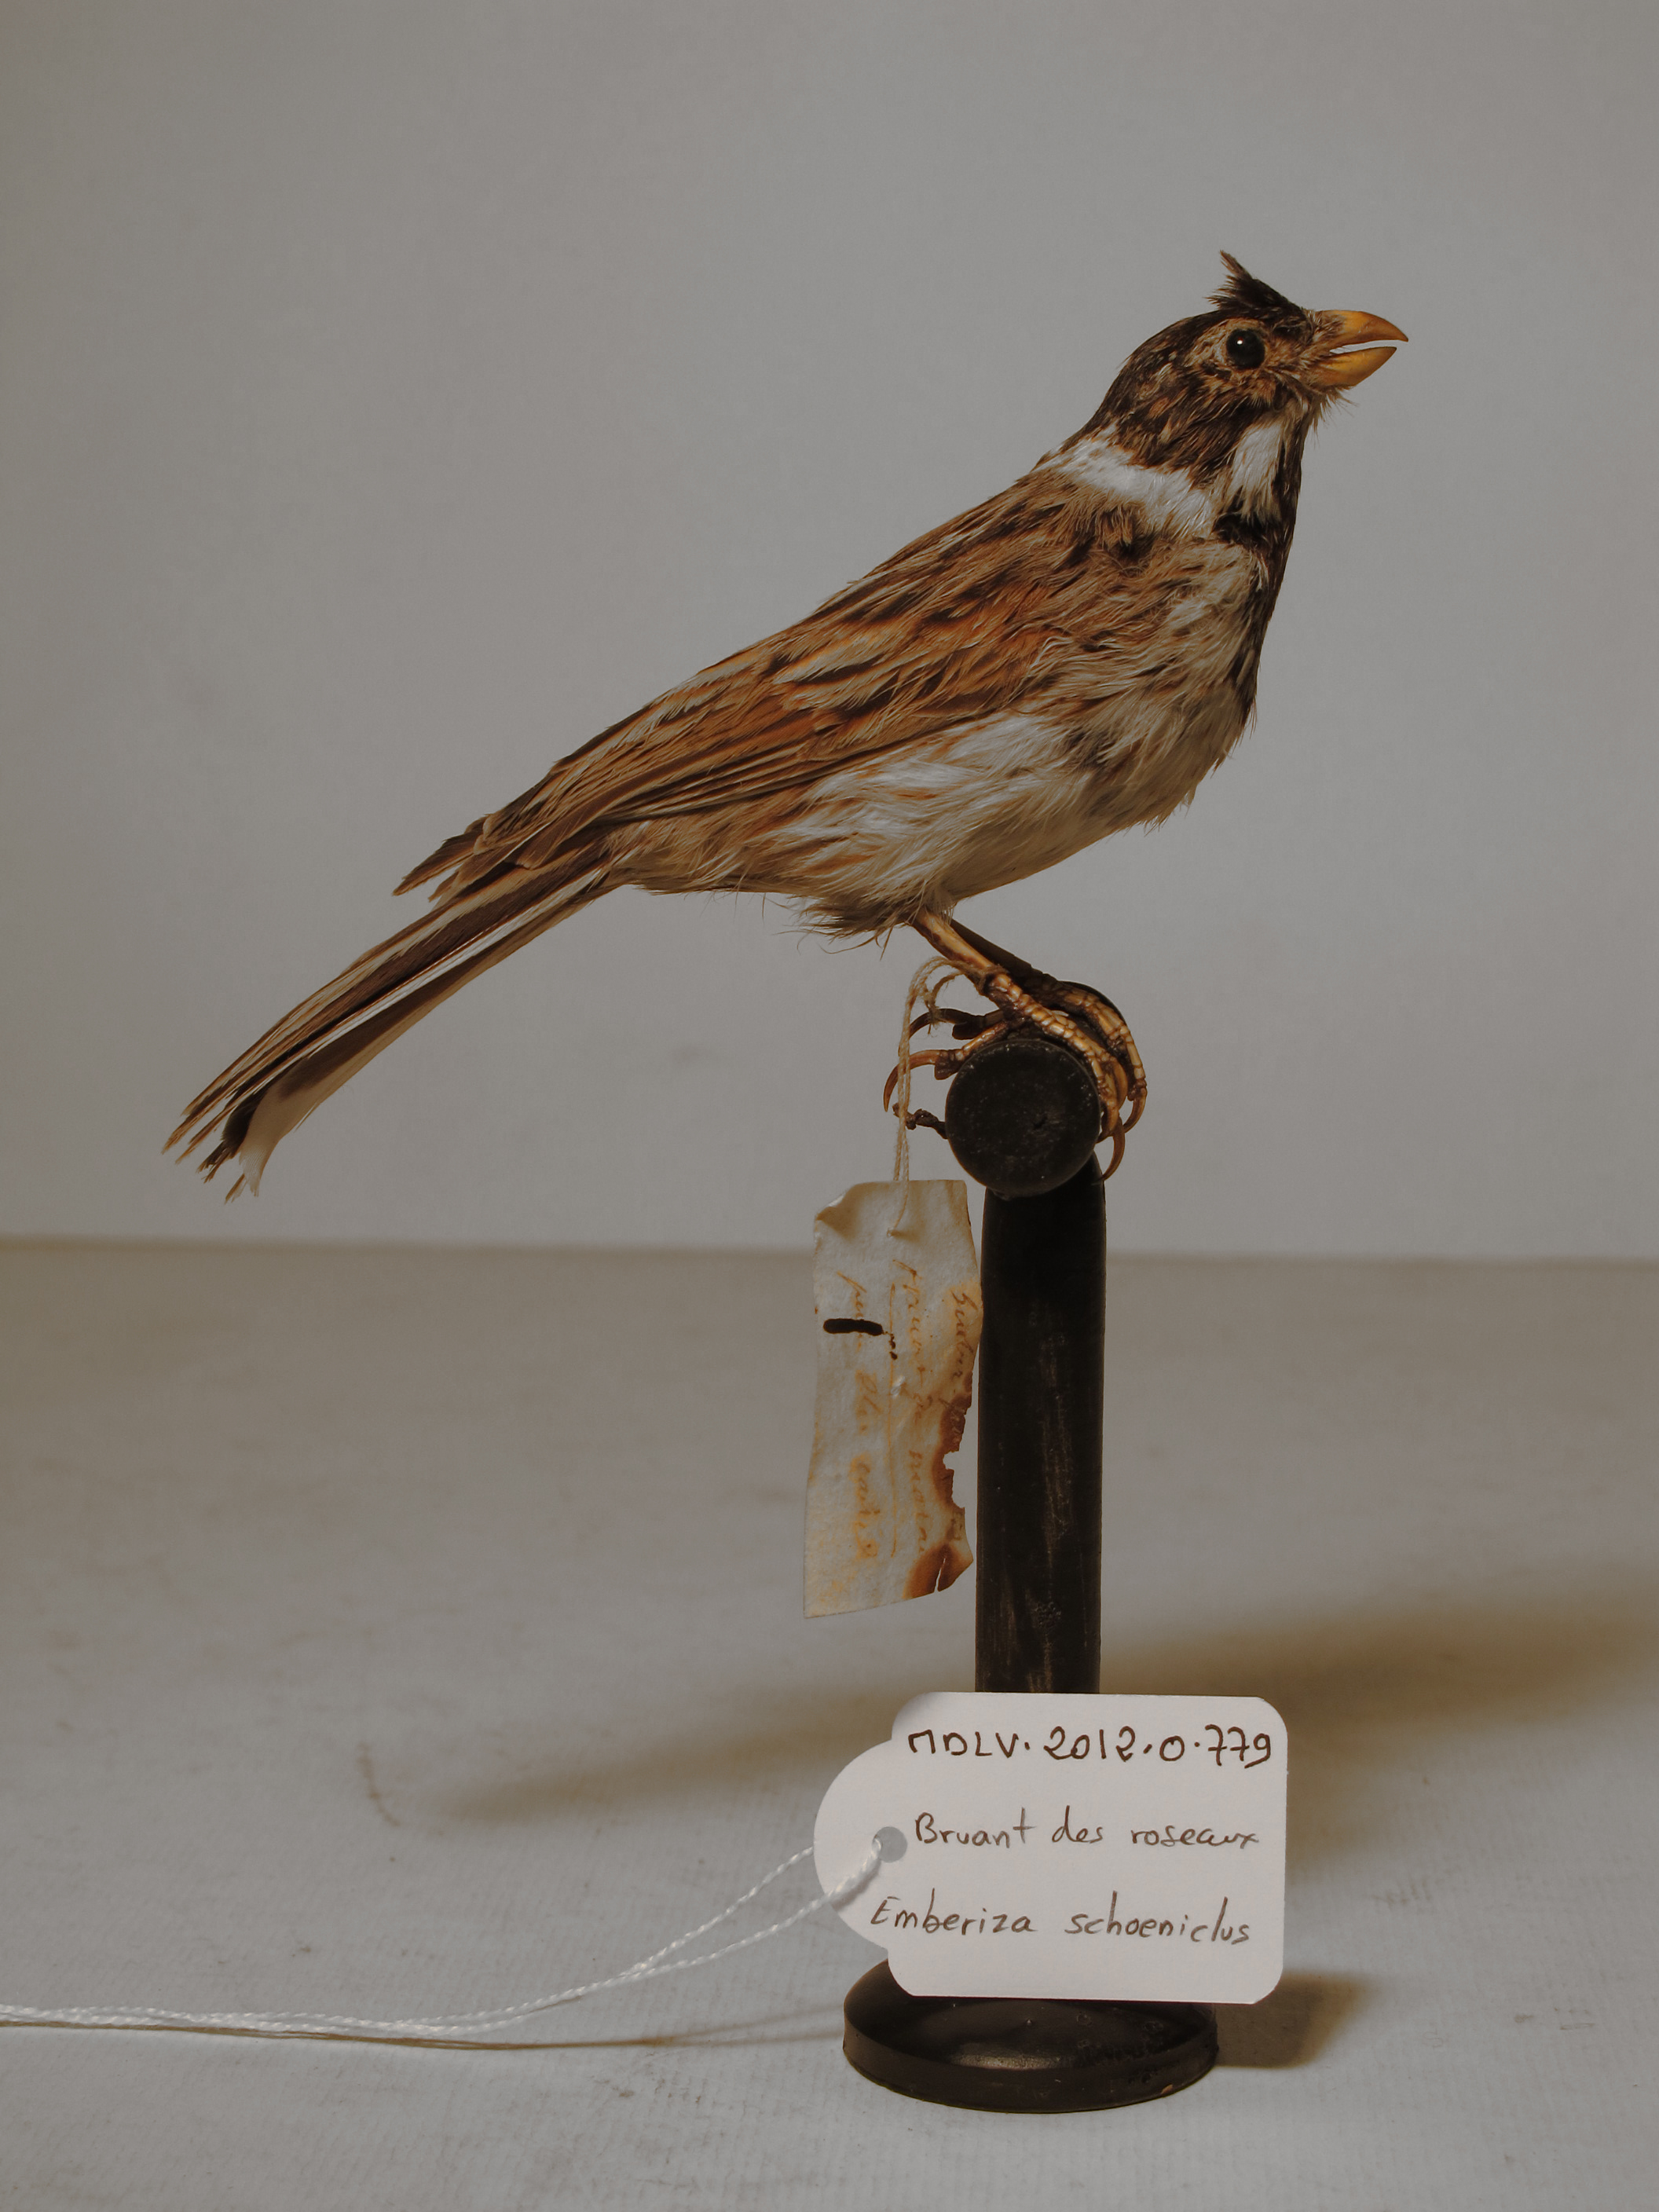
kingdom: Animalia
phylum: Chordata
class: Aves
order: Passeriformes
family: Emberizidae
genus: Emberiza
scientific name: Emberiza schoeniclus
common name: Reed Bunting
